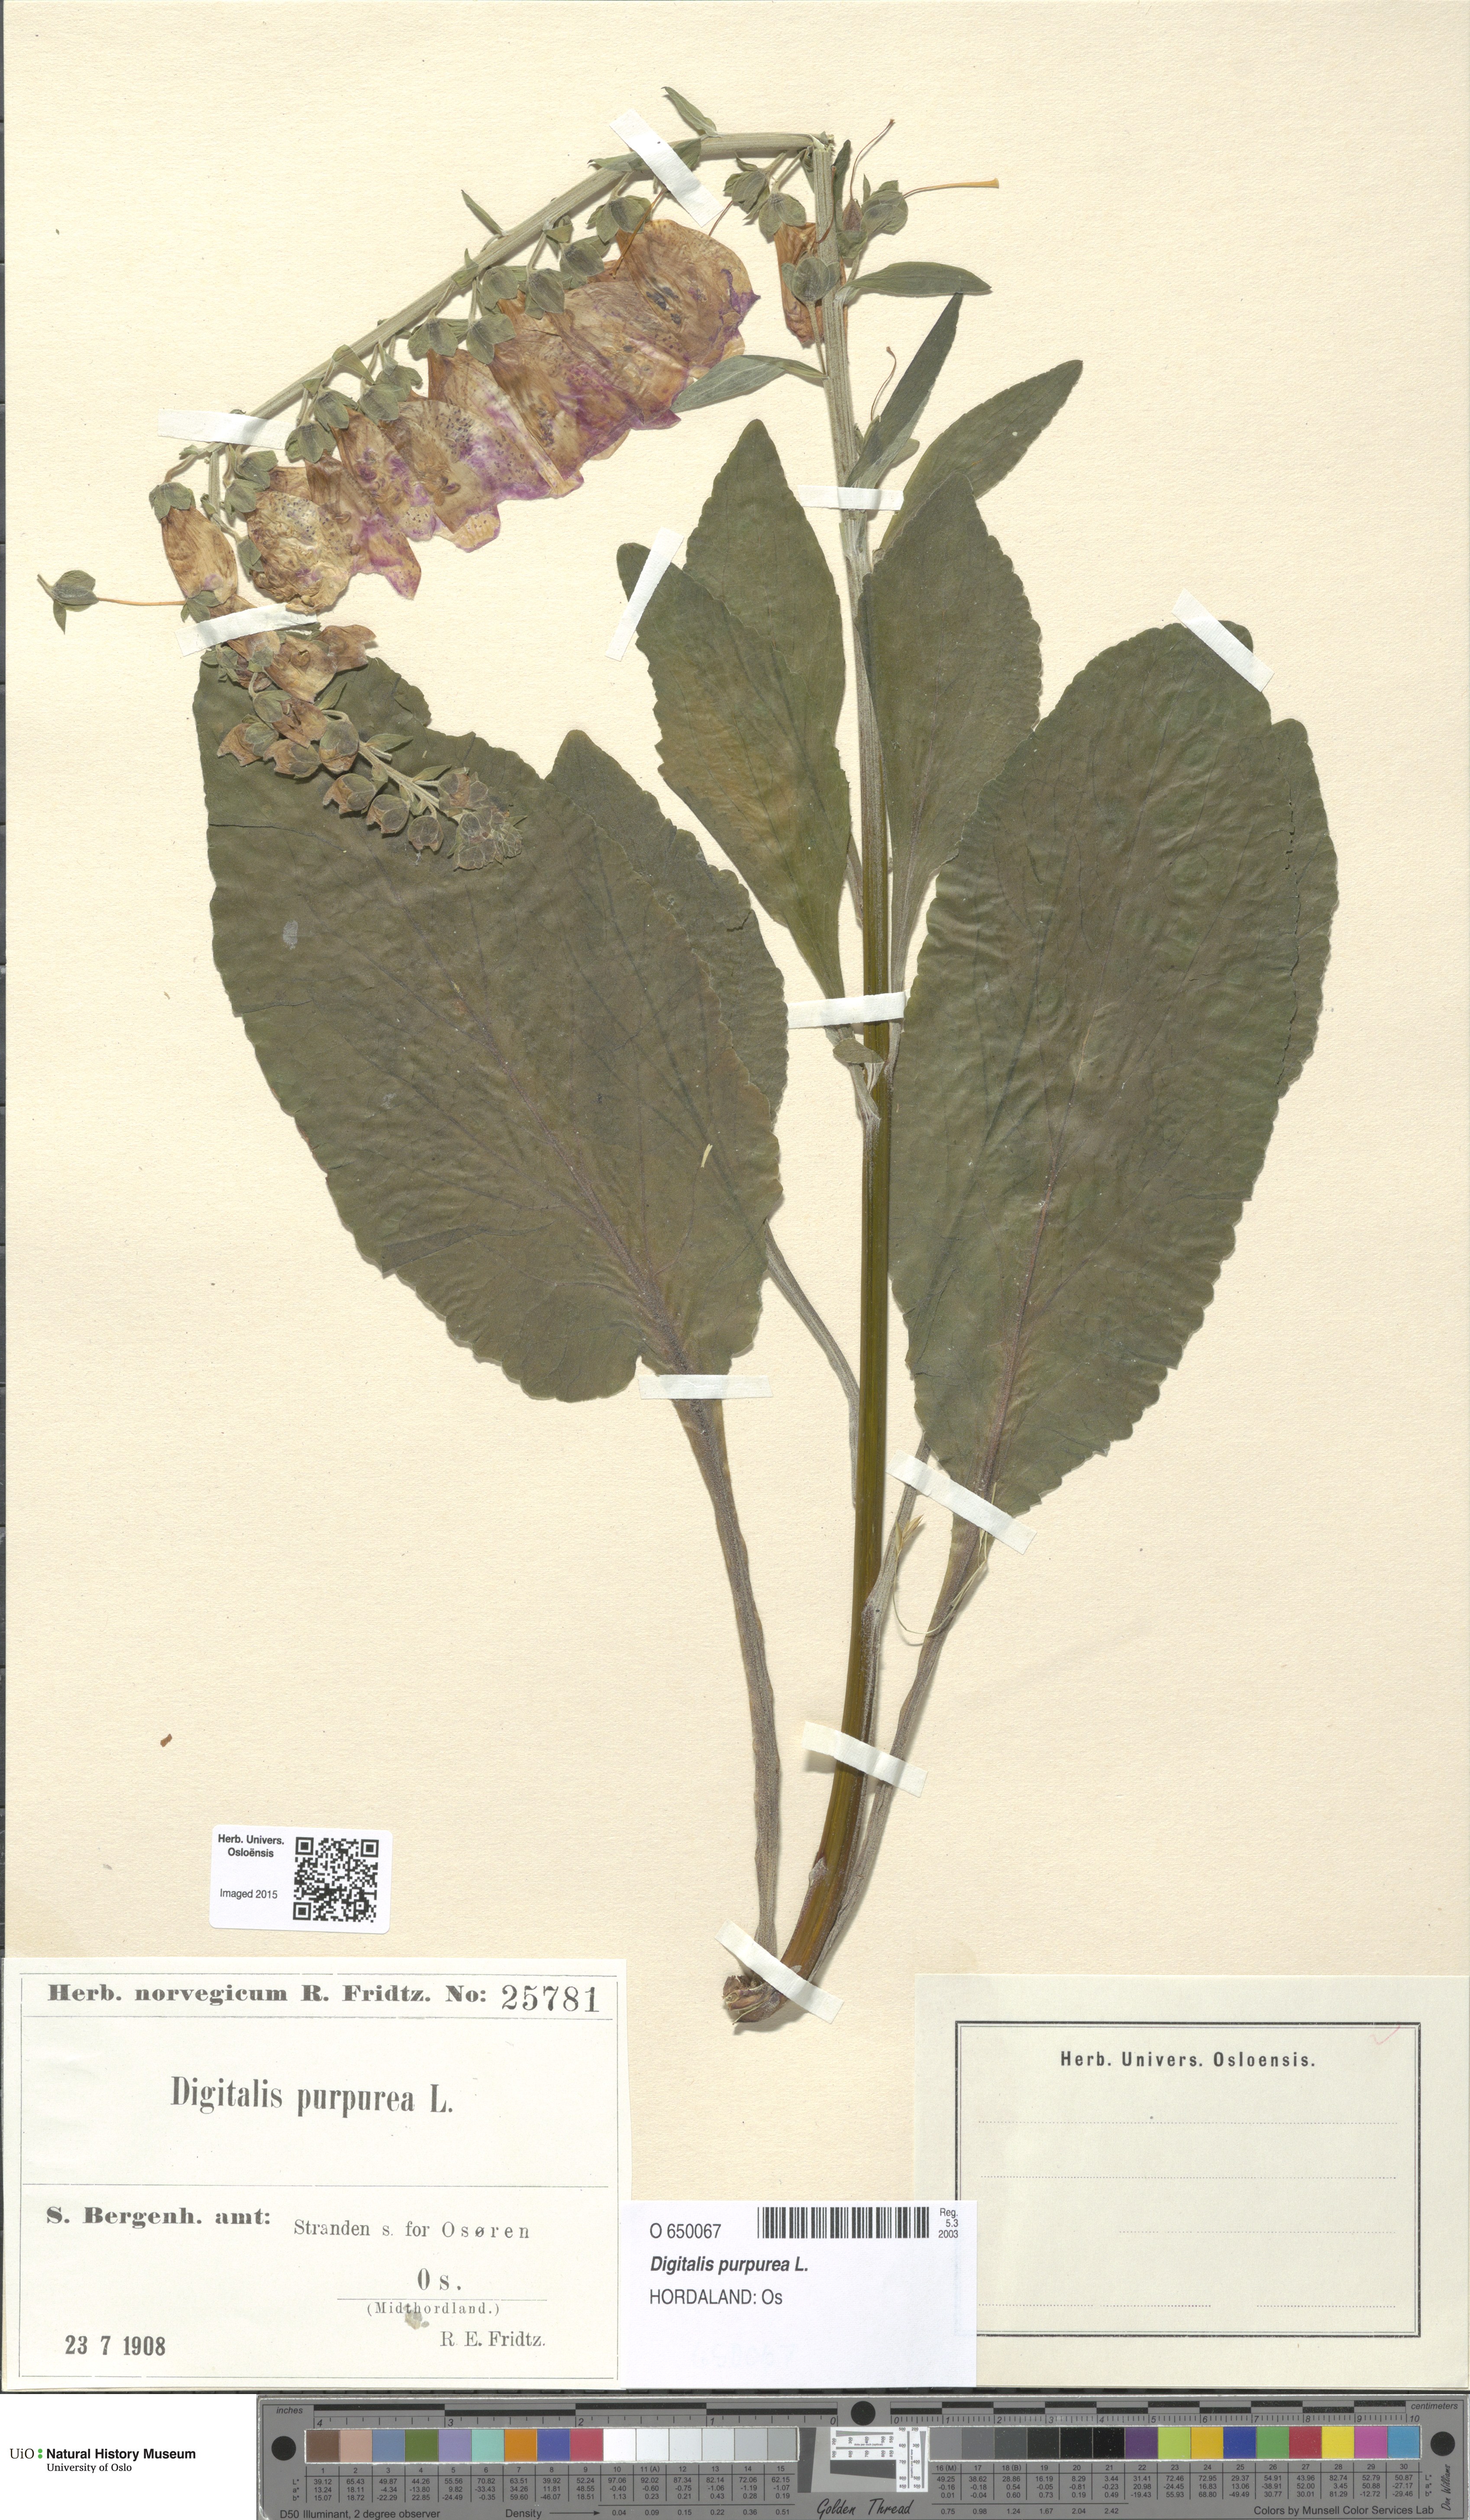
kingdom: Plantae
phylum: Tracheophyta
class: Magnoliopsida
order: Lamiales
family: Plantaginaceae
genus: Digitalis
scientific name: Digitalis purpurea
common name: Foxglove
